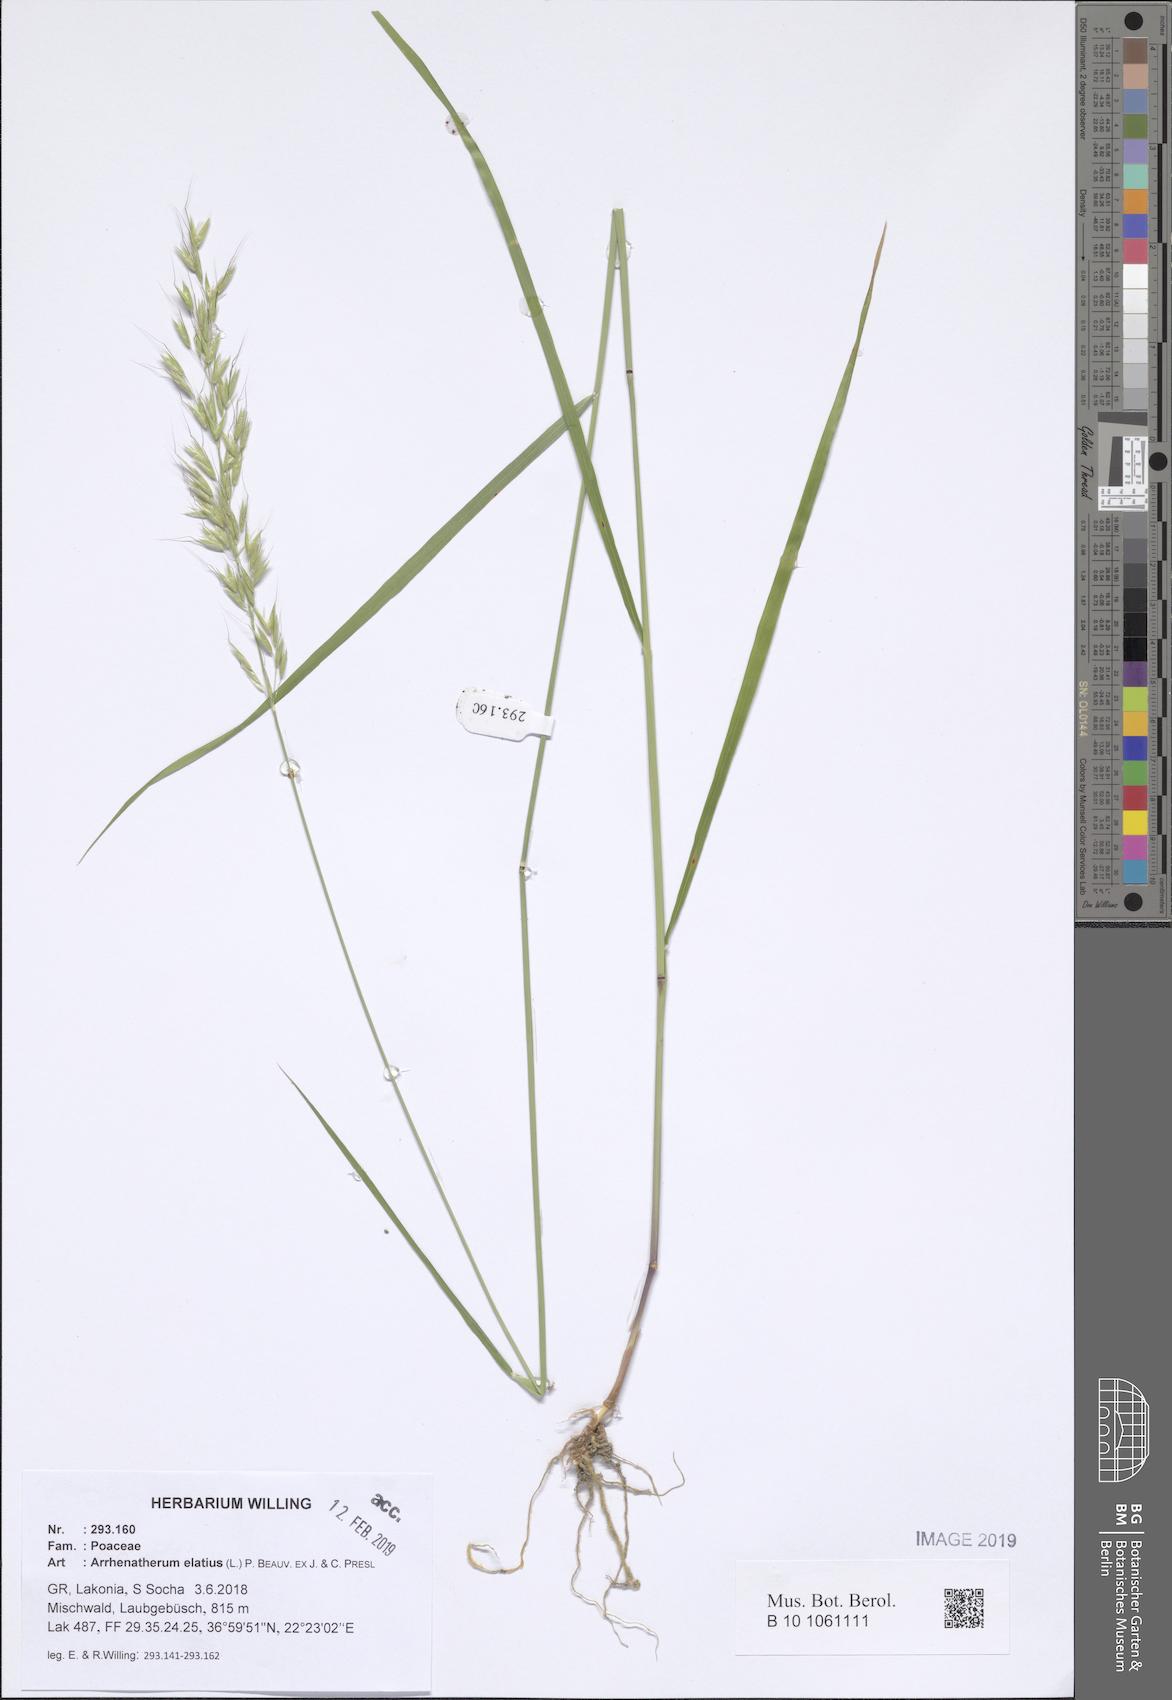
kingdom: Plantae
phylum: Tracheophyta
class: Liliopsida
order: Poales
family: Poaceae
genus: Arrhenatherum
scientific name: Arrhenatherum elatius
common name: Tall oatgrass
